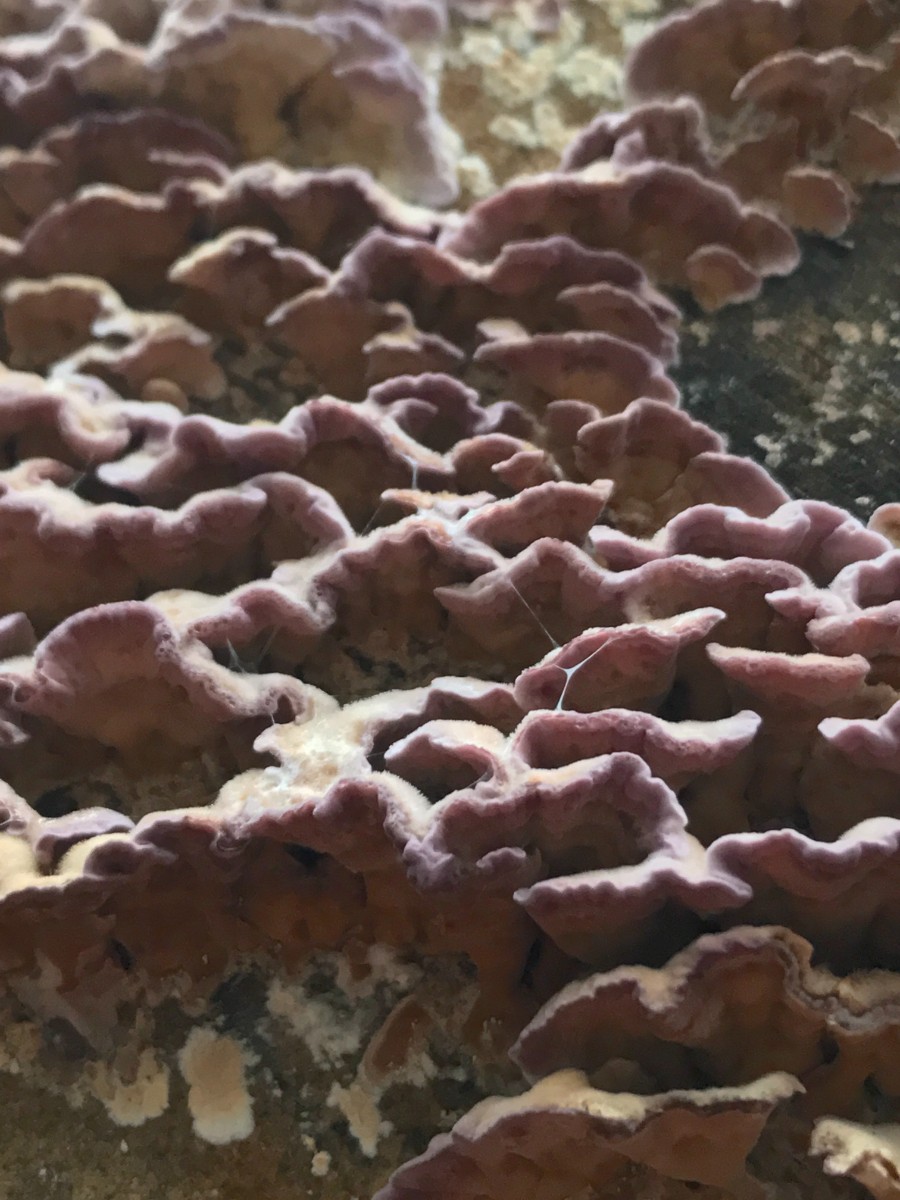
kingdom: Fungi
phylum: Basidiomycota
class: Agaricomycetes
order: Agaricales
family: Cyphellaceae
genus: Chondrostereum
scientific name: Chondrostereum purpureum
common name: purpurlædersvamp
